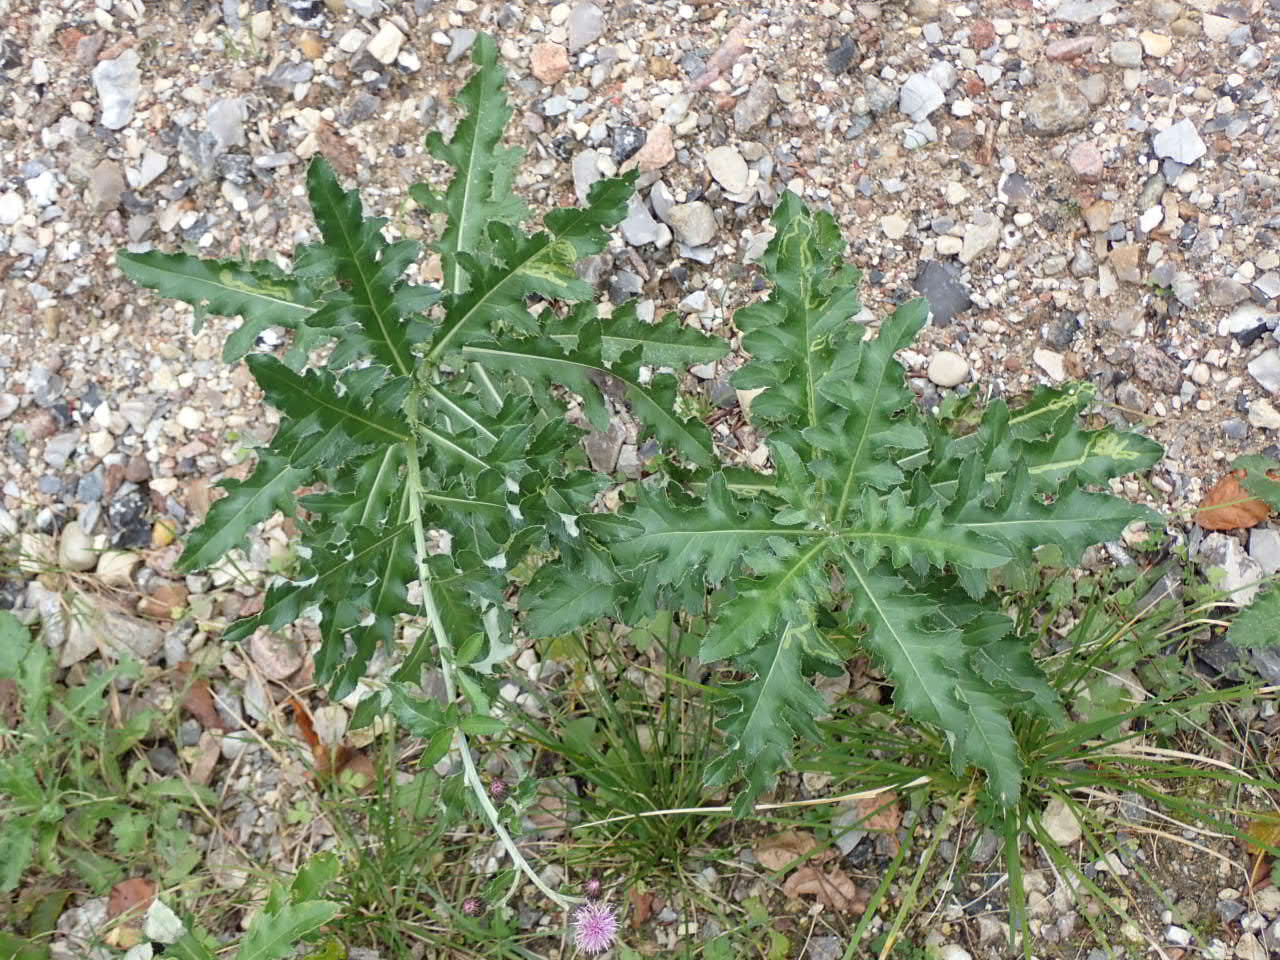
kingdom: Plantae
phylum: Tracheophyta
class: Magnoliopsida
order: Asterales
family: Asteraceae
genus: Cirsium
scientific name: Cirsium arvense
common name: Ager-tidsel
